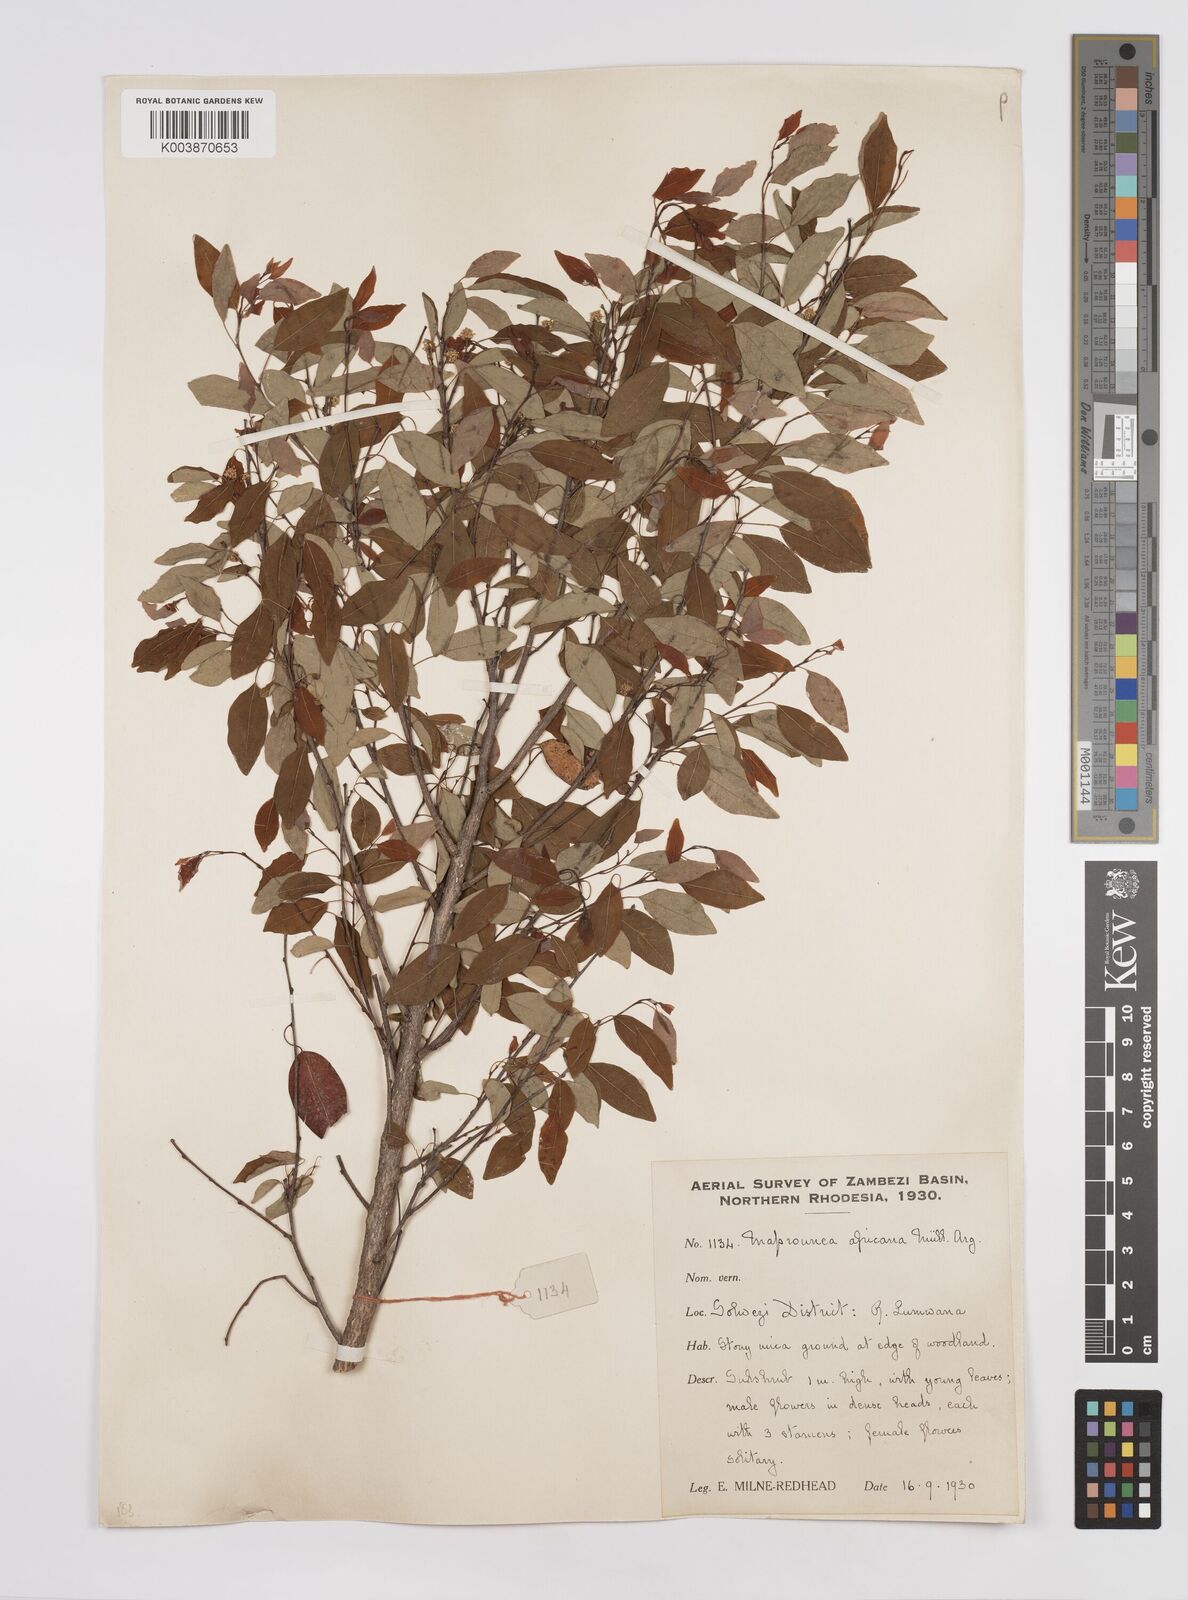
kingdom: Plantae
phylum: Tracheophyta
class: Magnoliopsida
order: Malpighiales
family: Euphorbiaceae
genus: Maprounea
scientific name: Maprounea africana
